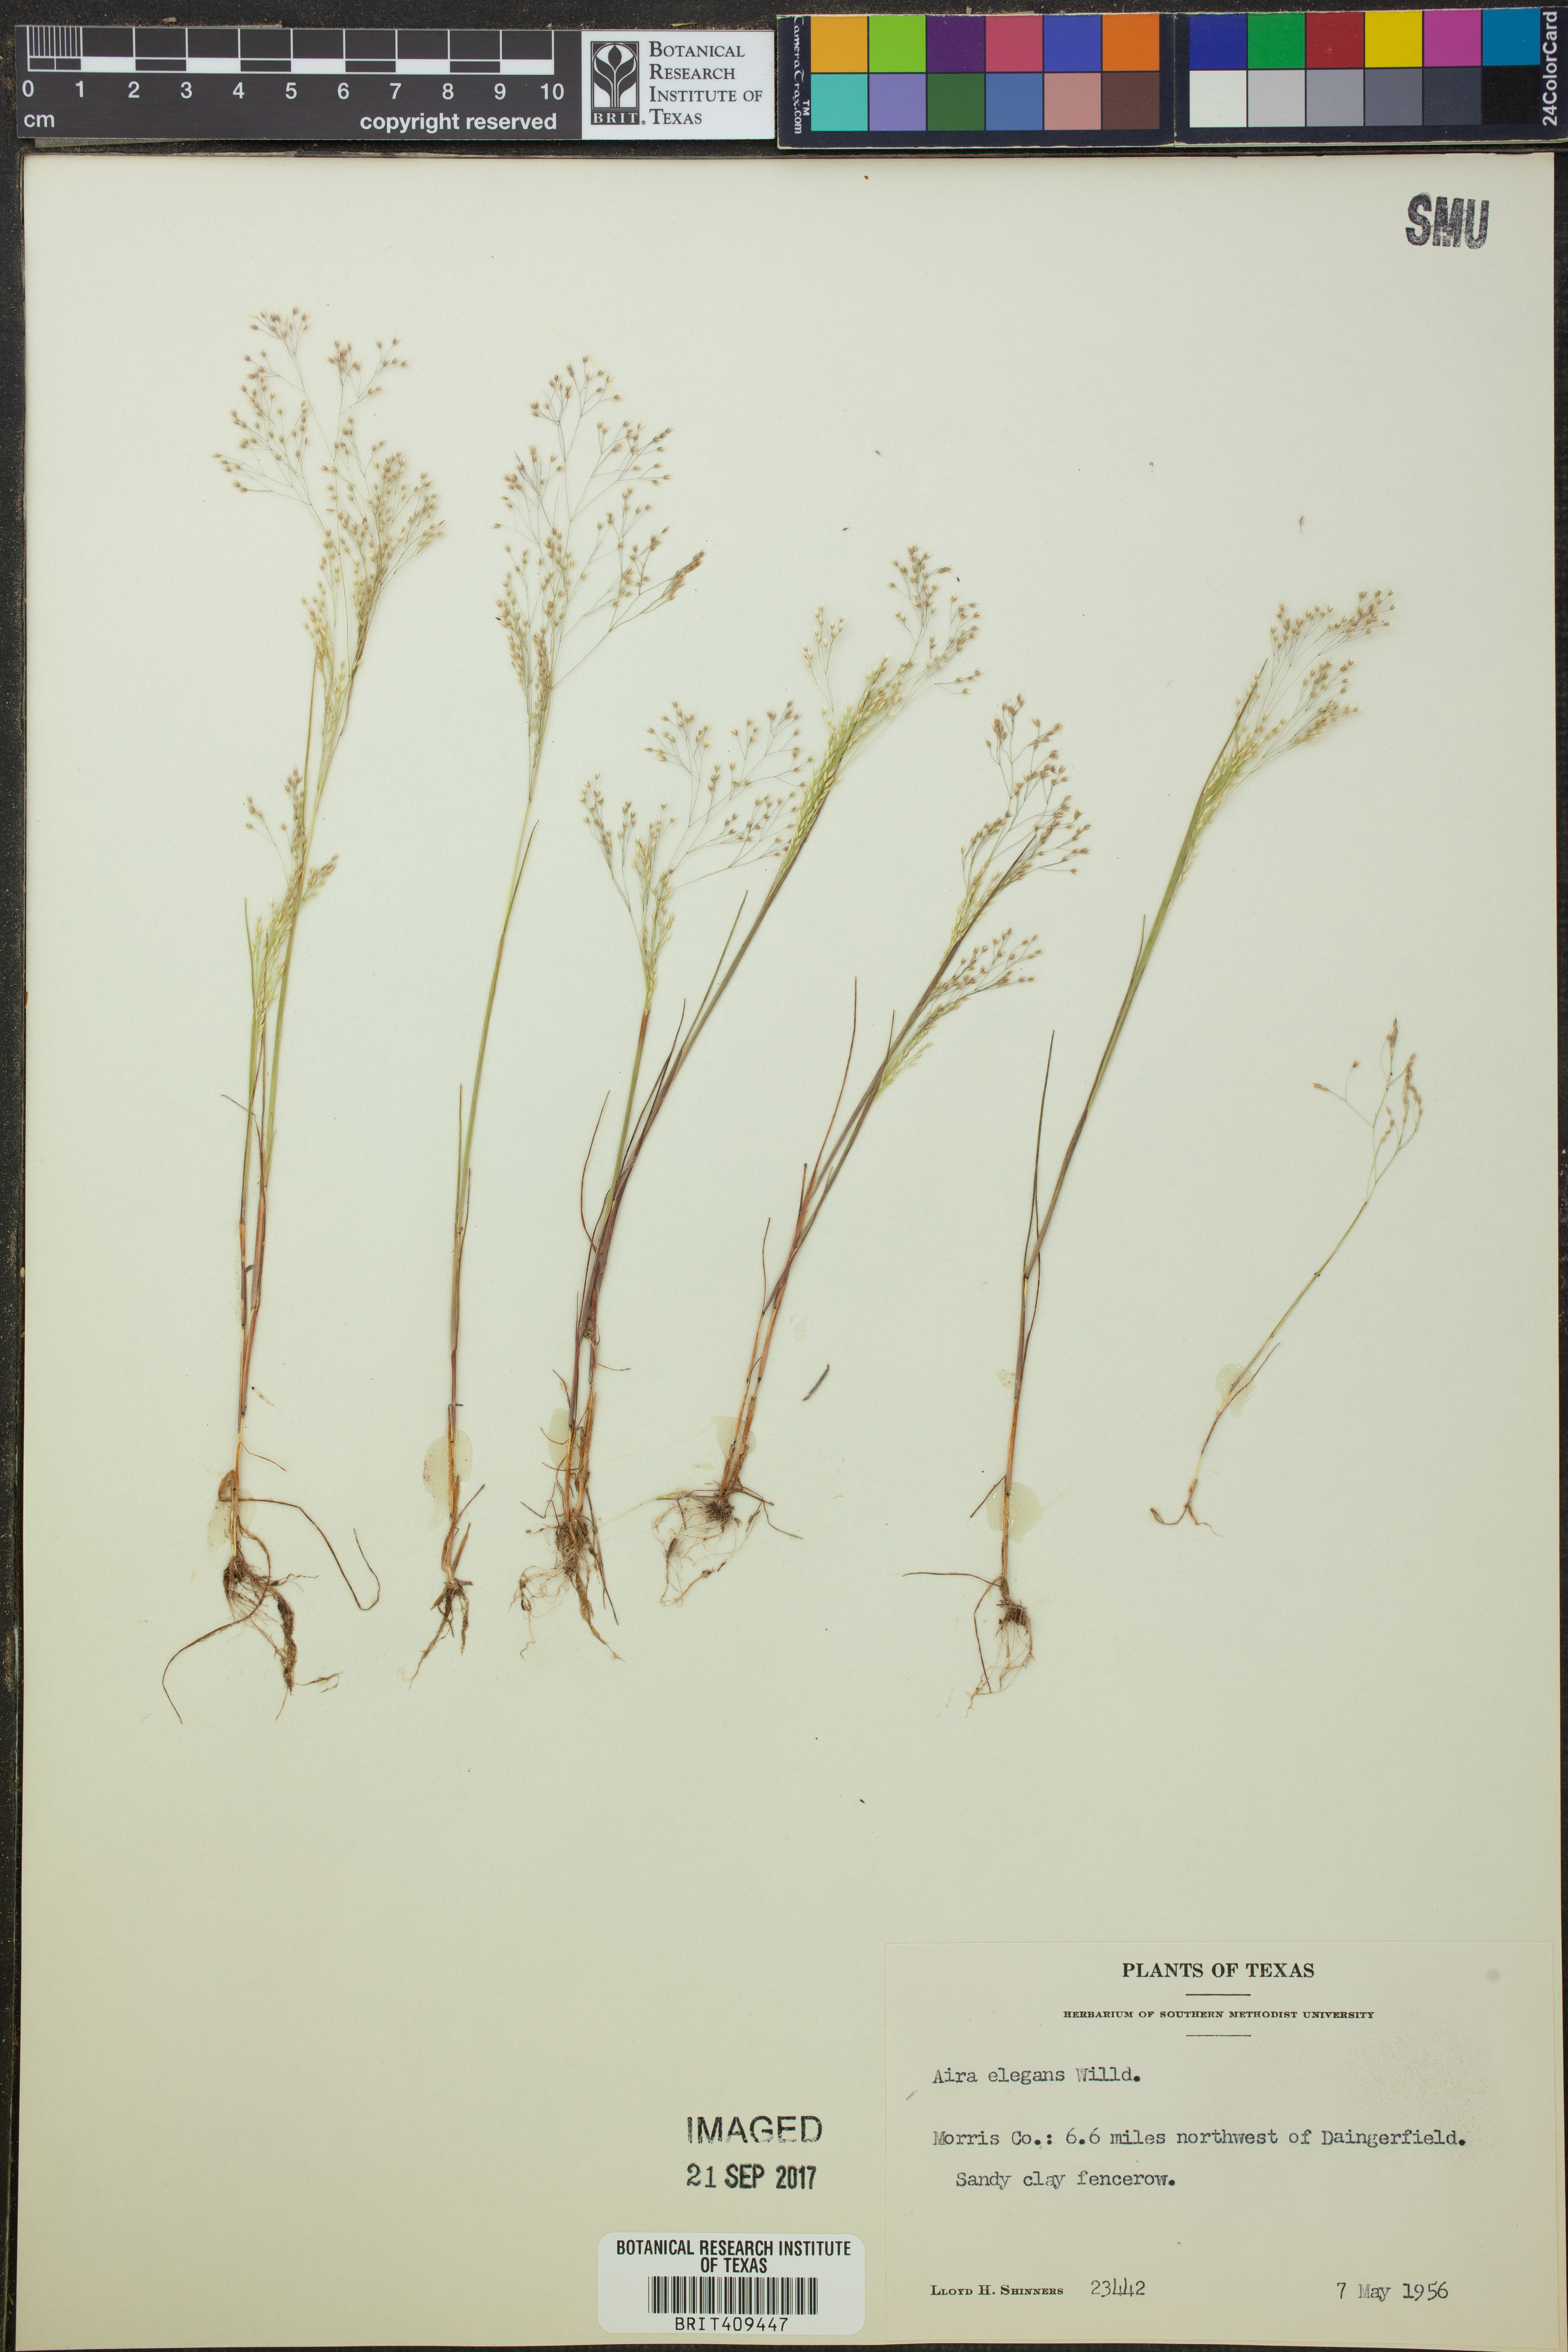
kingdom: Plantae
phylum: Tracheophyta
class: Liliopsida
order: Poales
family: Poaceae
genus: Aira
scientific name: Aira elegans
